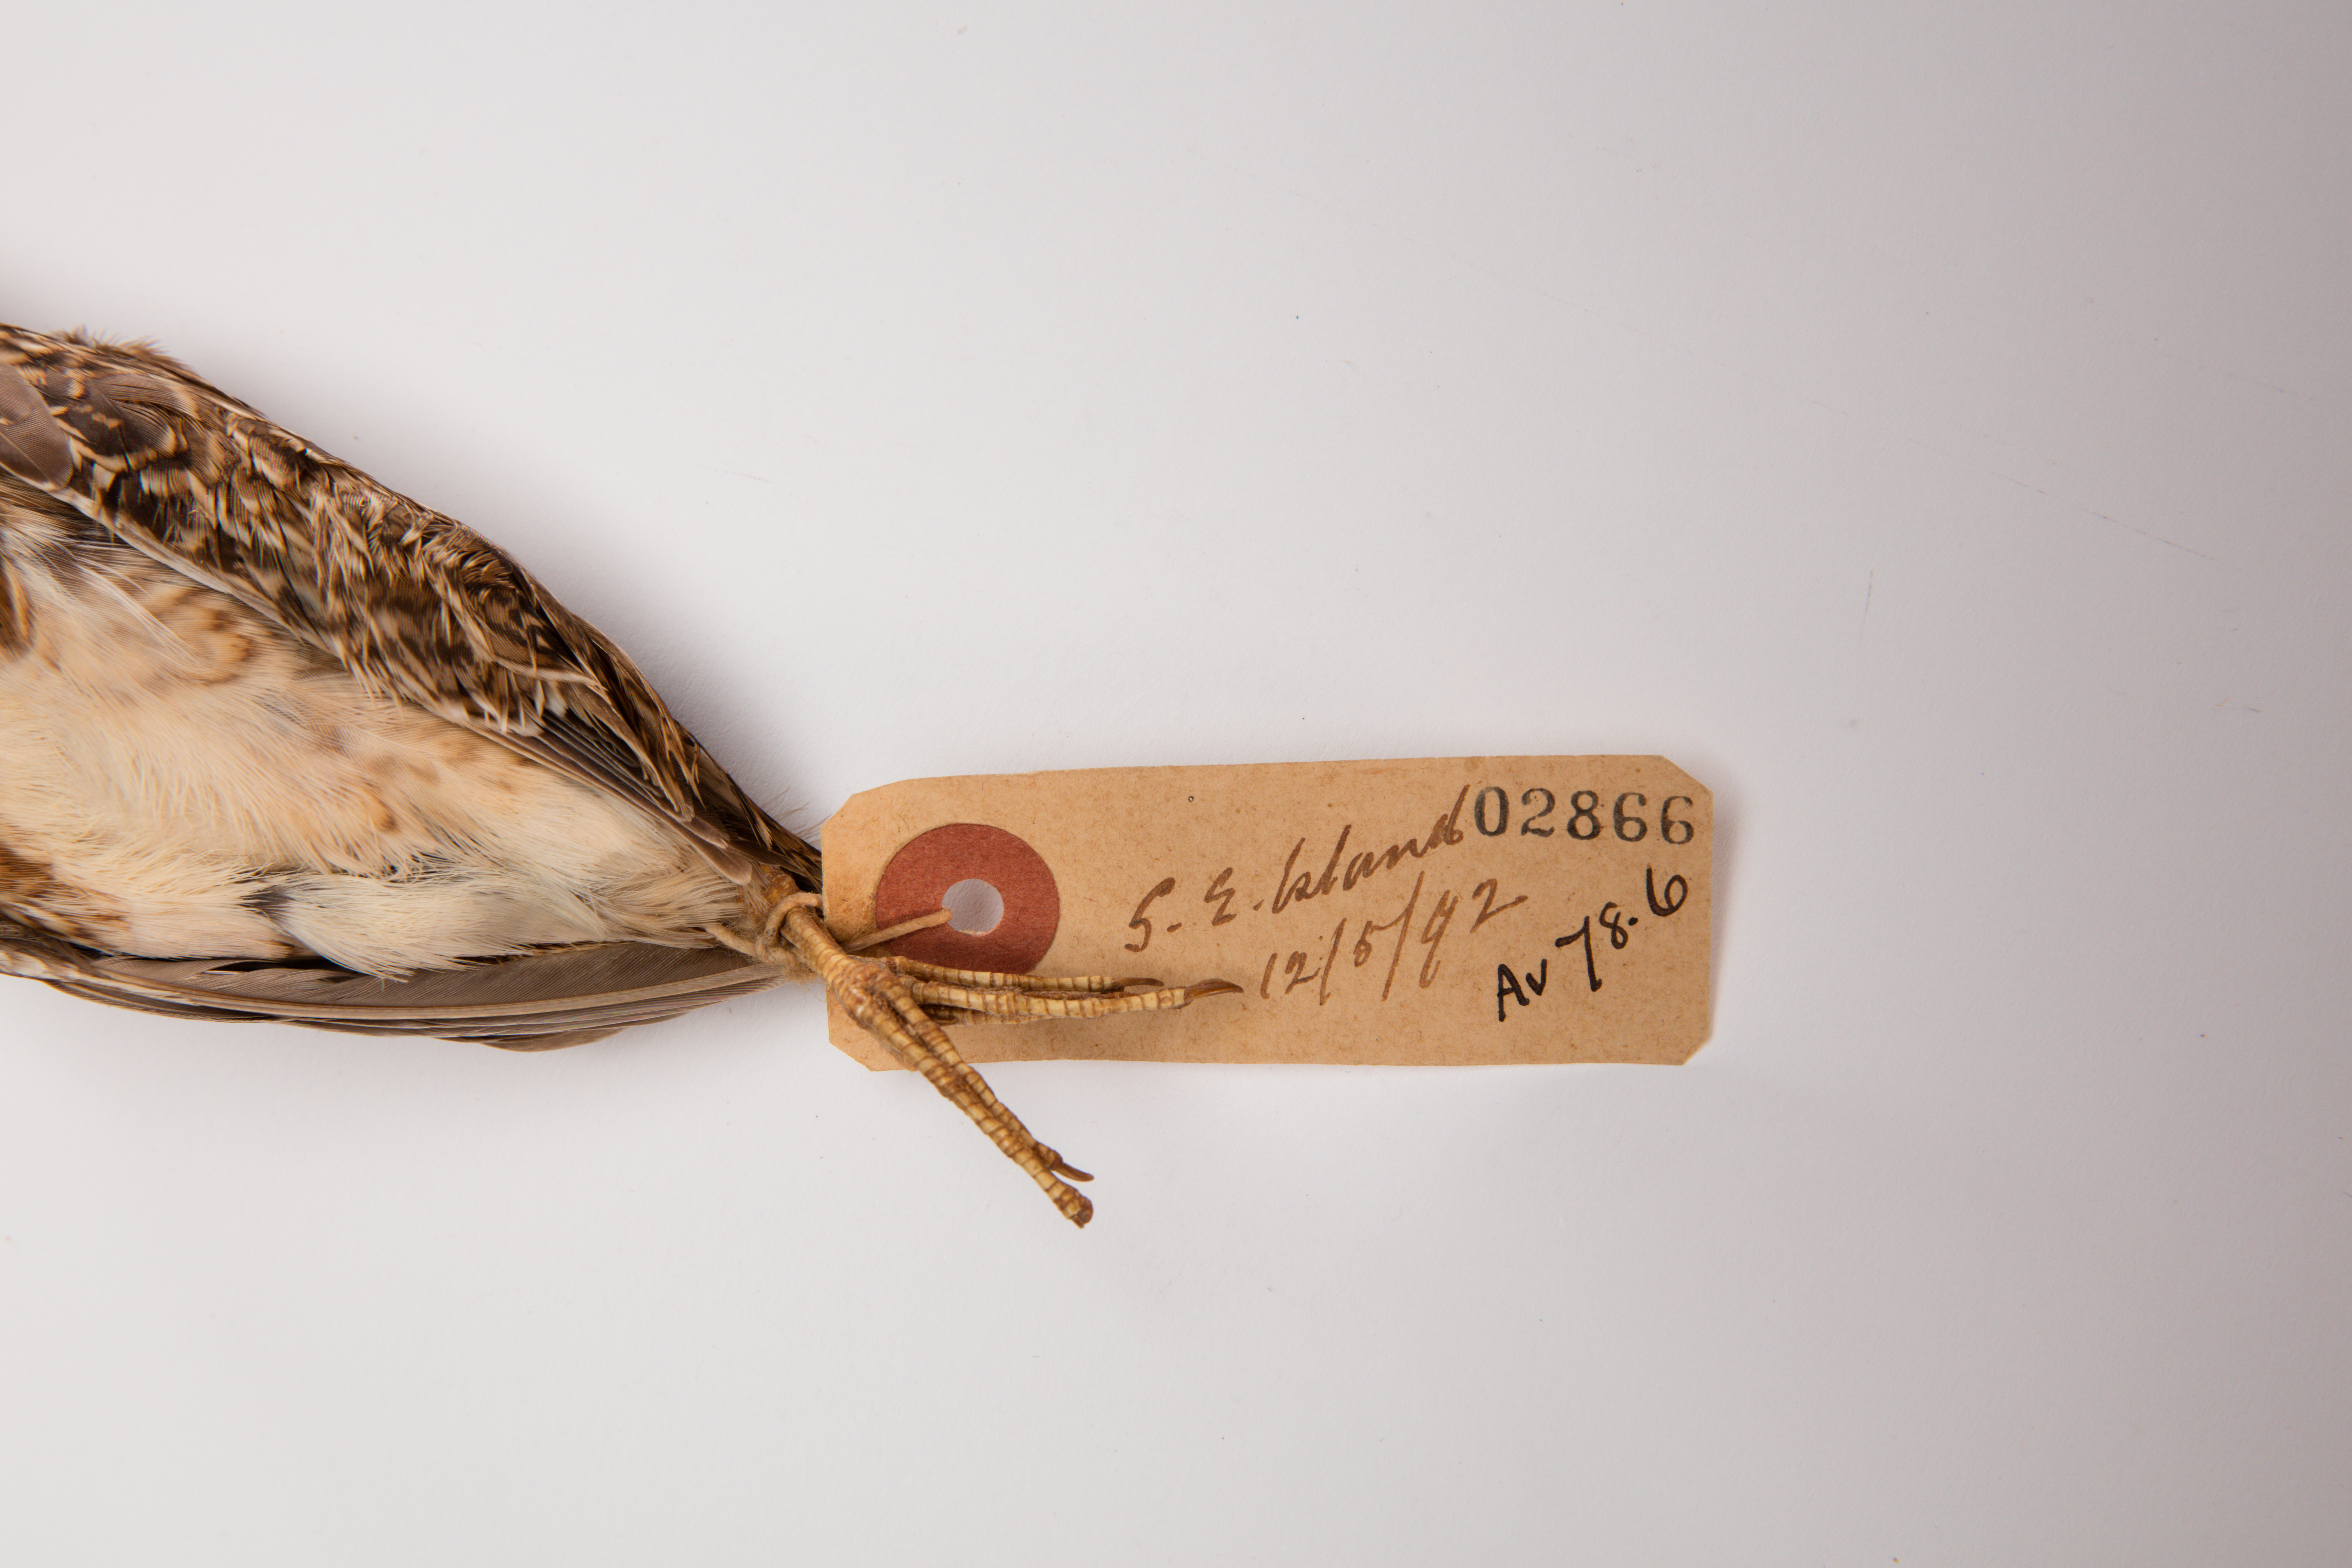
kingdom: Animalia
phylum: Chordata
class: Aves
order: Charadriiformes
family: Scolopacidae
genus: Coenocorypha
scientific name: Coenocorypha pusilla
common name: Chatham snipe
